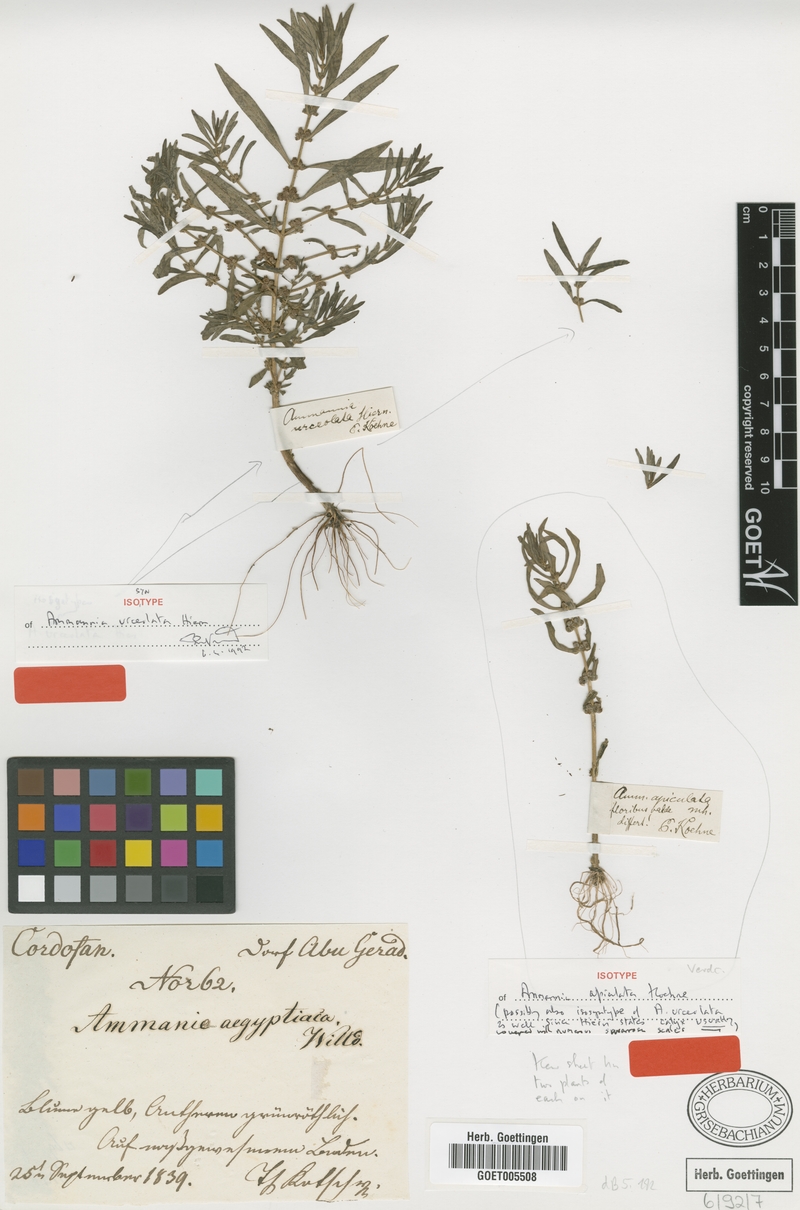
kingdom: Plantae
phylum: Tracheophyta
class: Magnoliopsida
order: Myrtales
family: Lythraceae
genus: Ammannia
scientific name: Ammannia baccifera
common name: Blistering ammania
